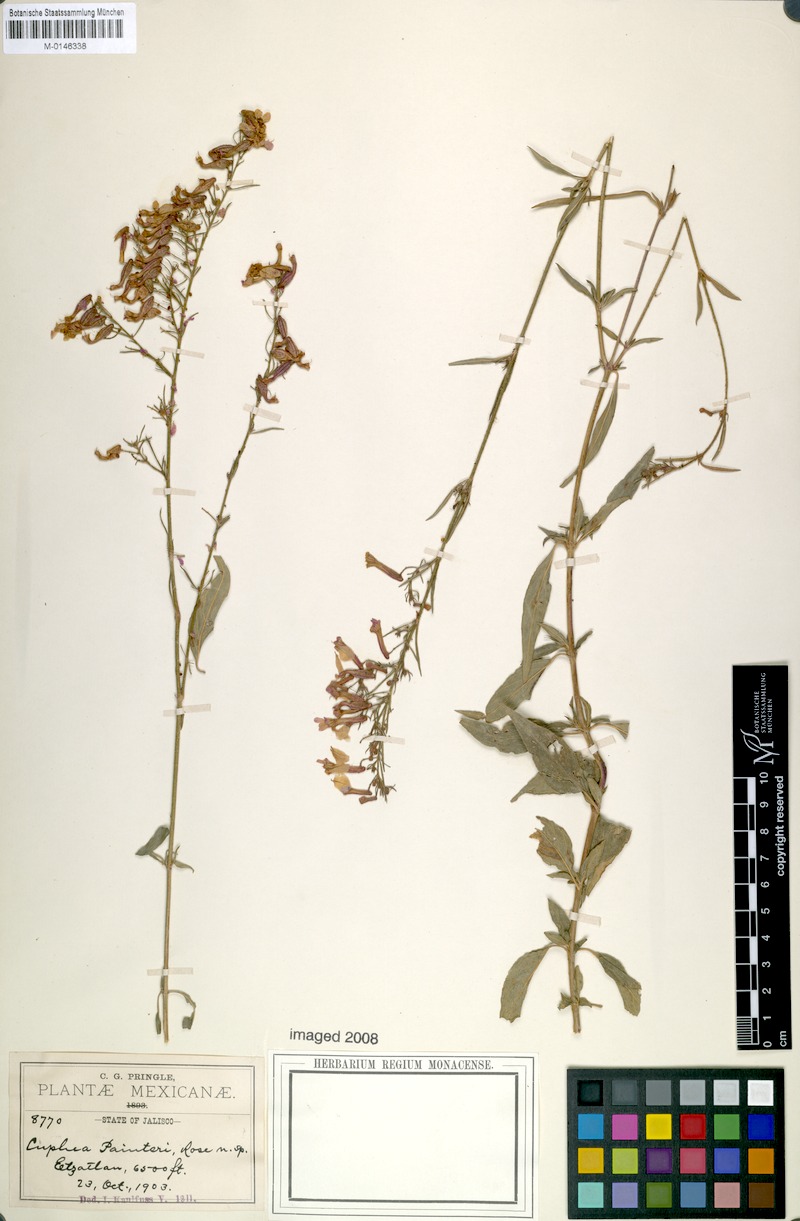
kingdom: Plantae
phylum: Tracheophyta
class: Magnoliopsida
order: Myrtales
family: Lythraceae
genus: Cuphea
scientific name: Cuphea painteri
